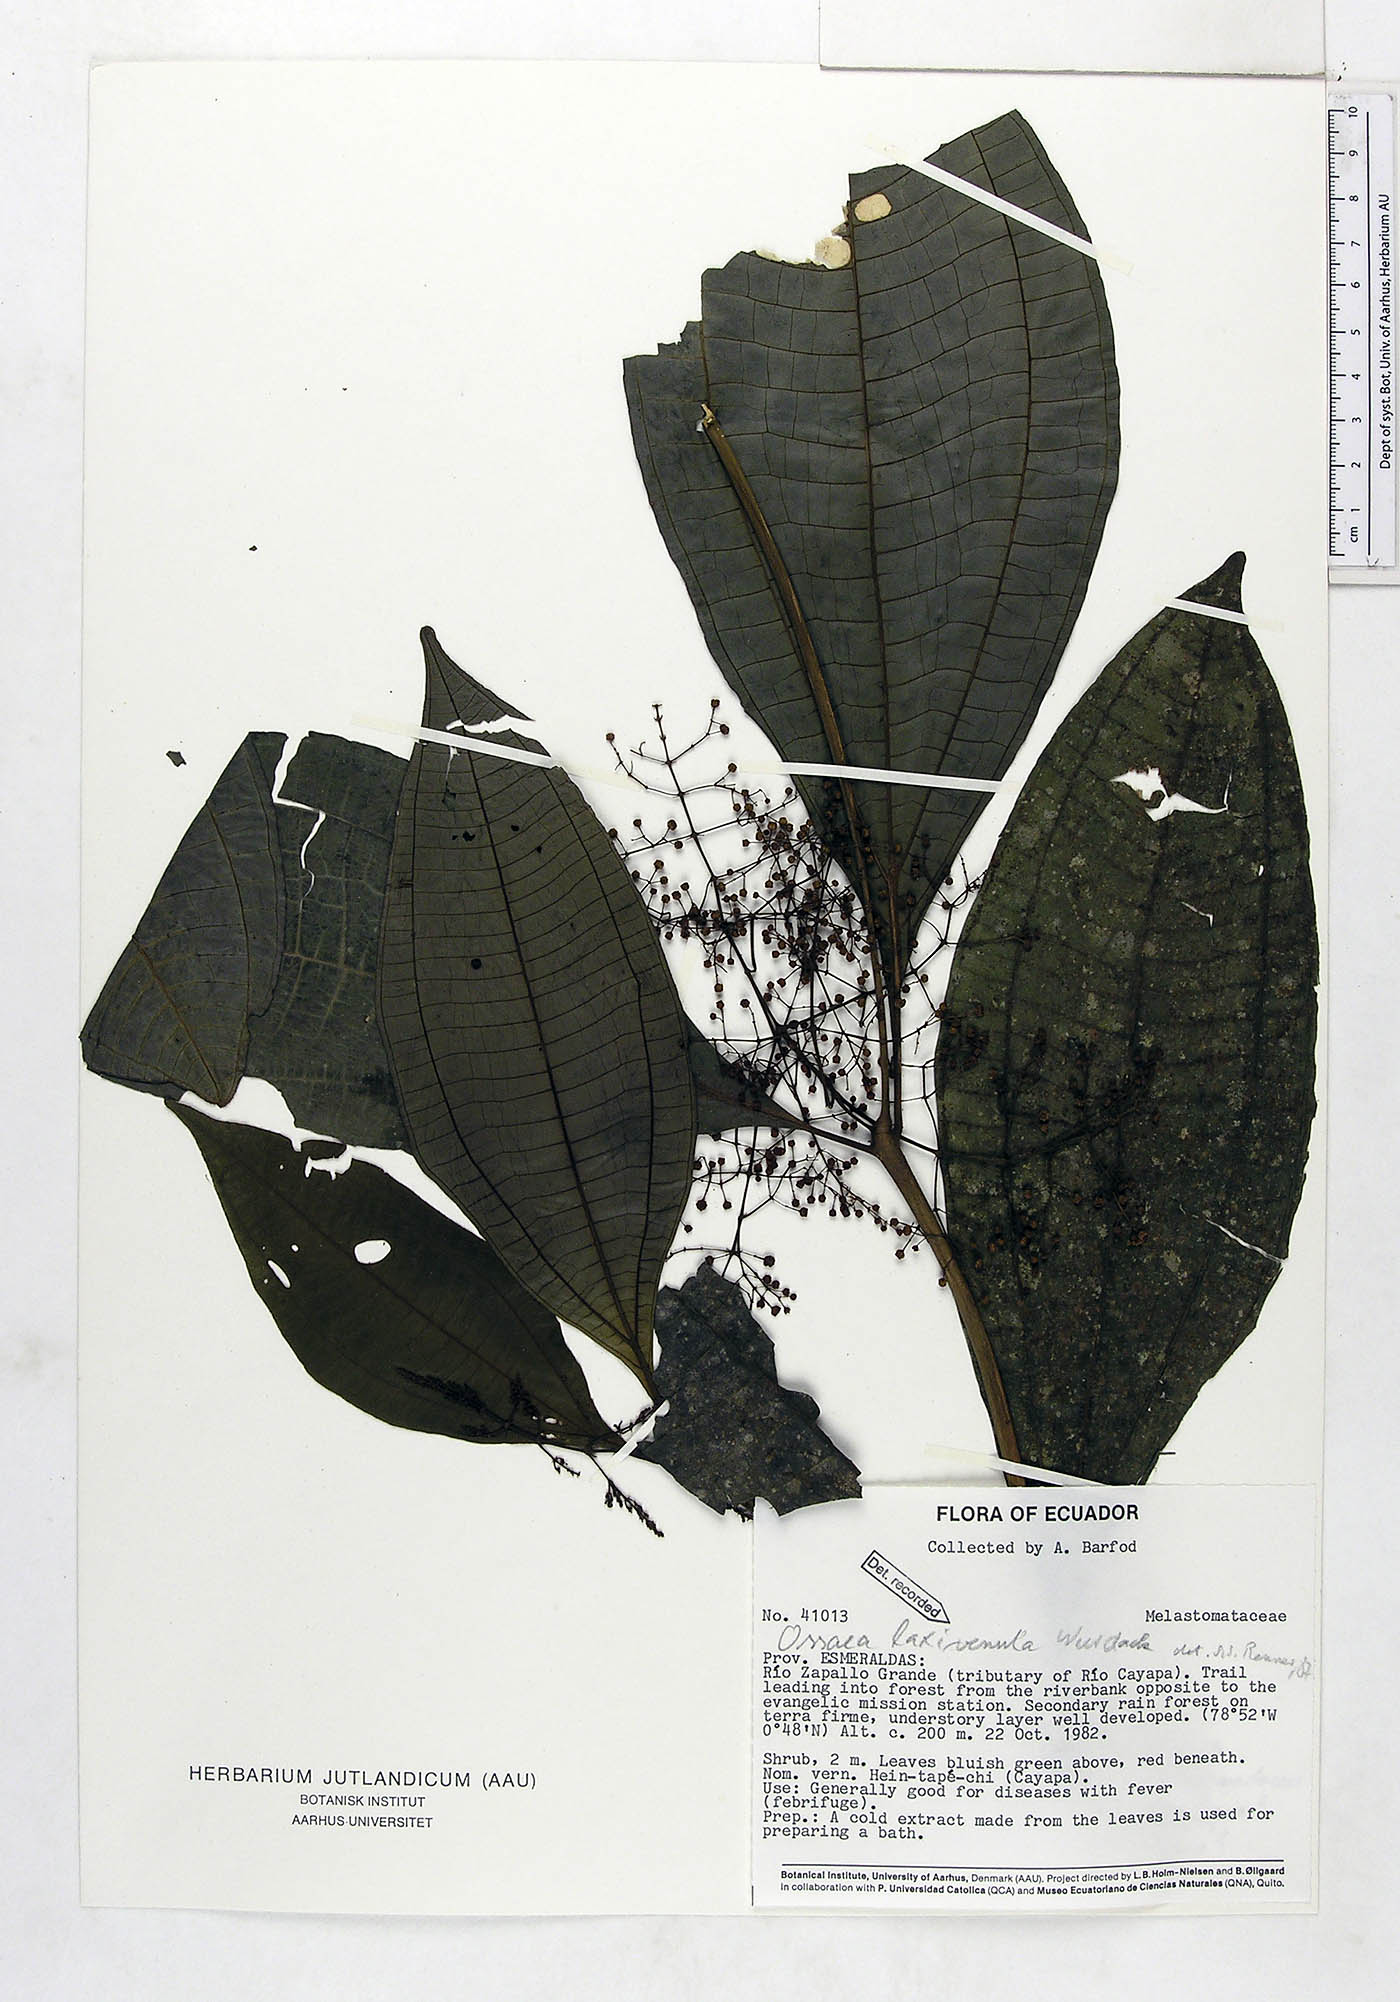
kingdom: Plantae
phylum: Tracheophyta
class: Magnoliopsida
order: Myrtales
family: Melastomataceae
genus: Miconia
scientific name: Miconia laxivenula
